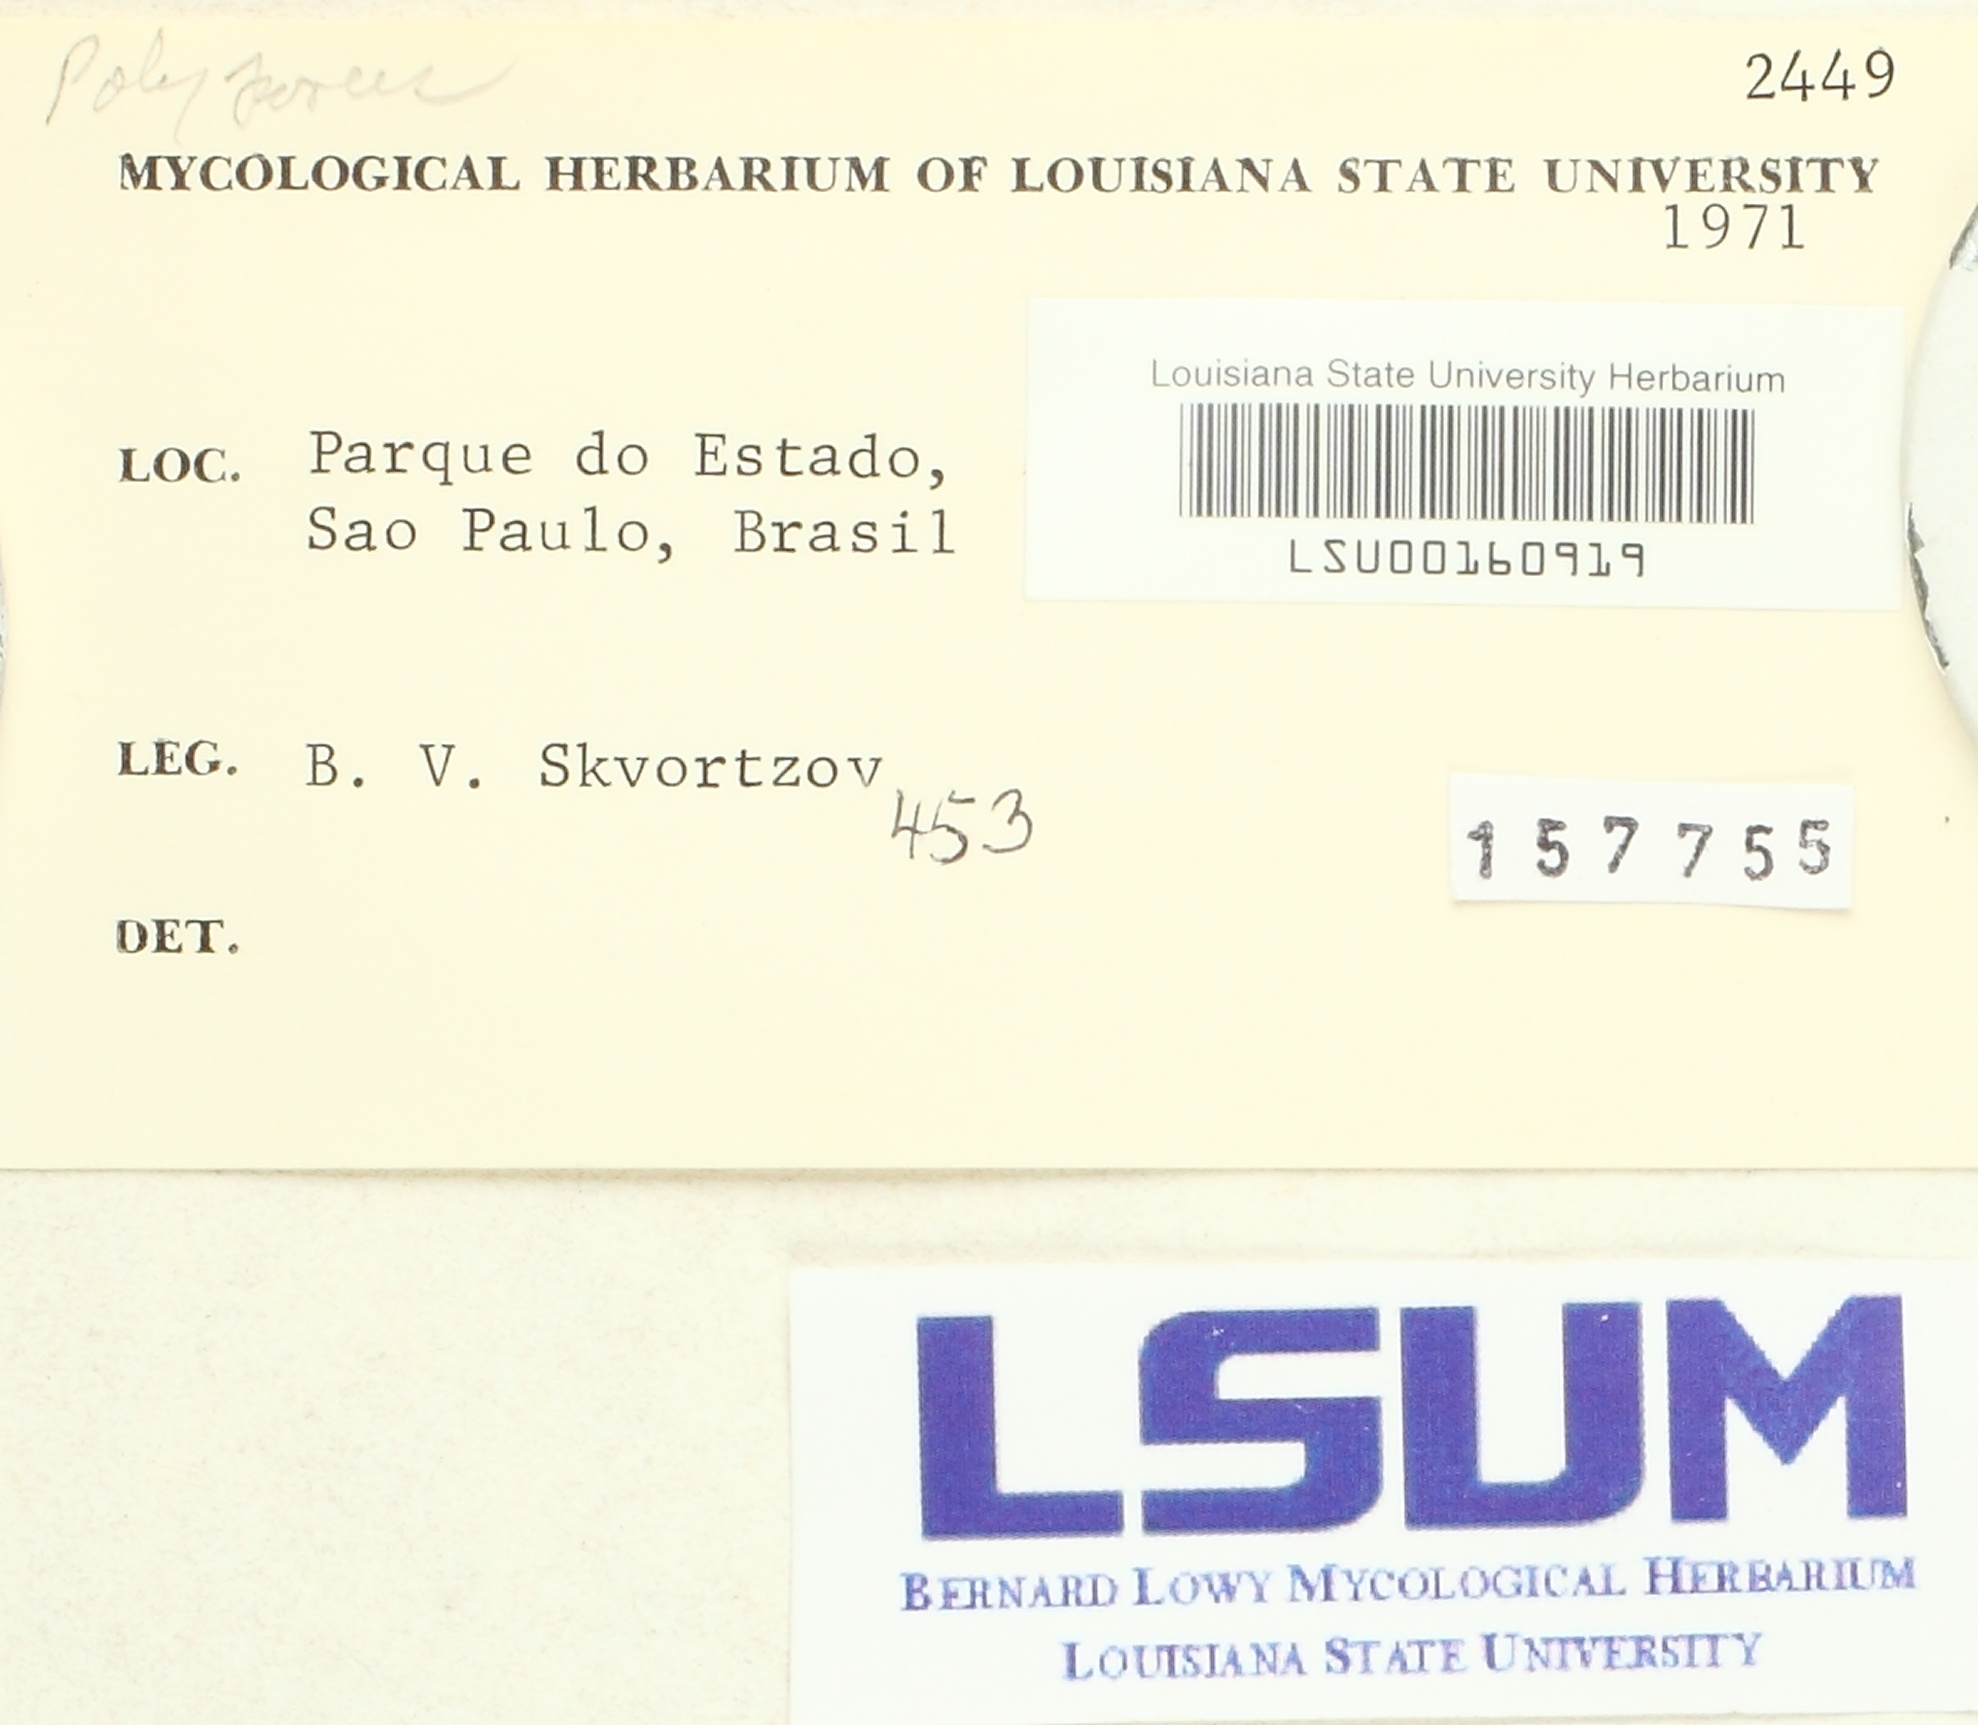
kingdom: Fungi
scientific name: Fungi
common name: Fungi
